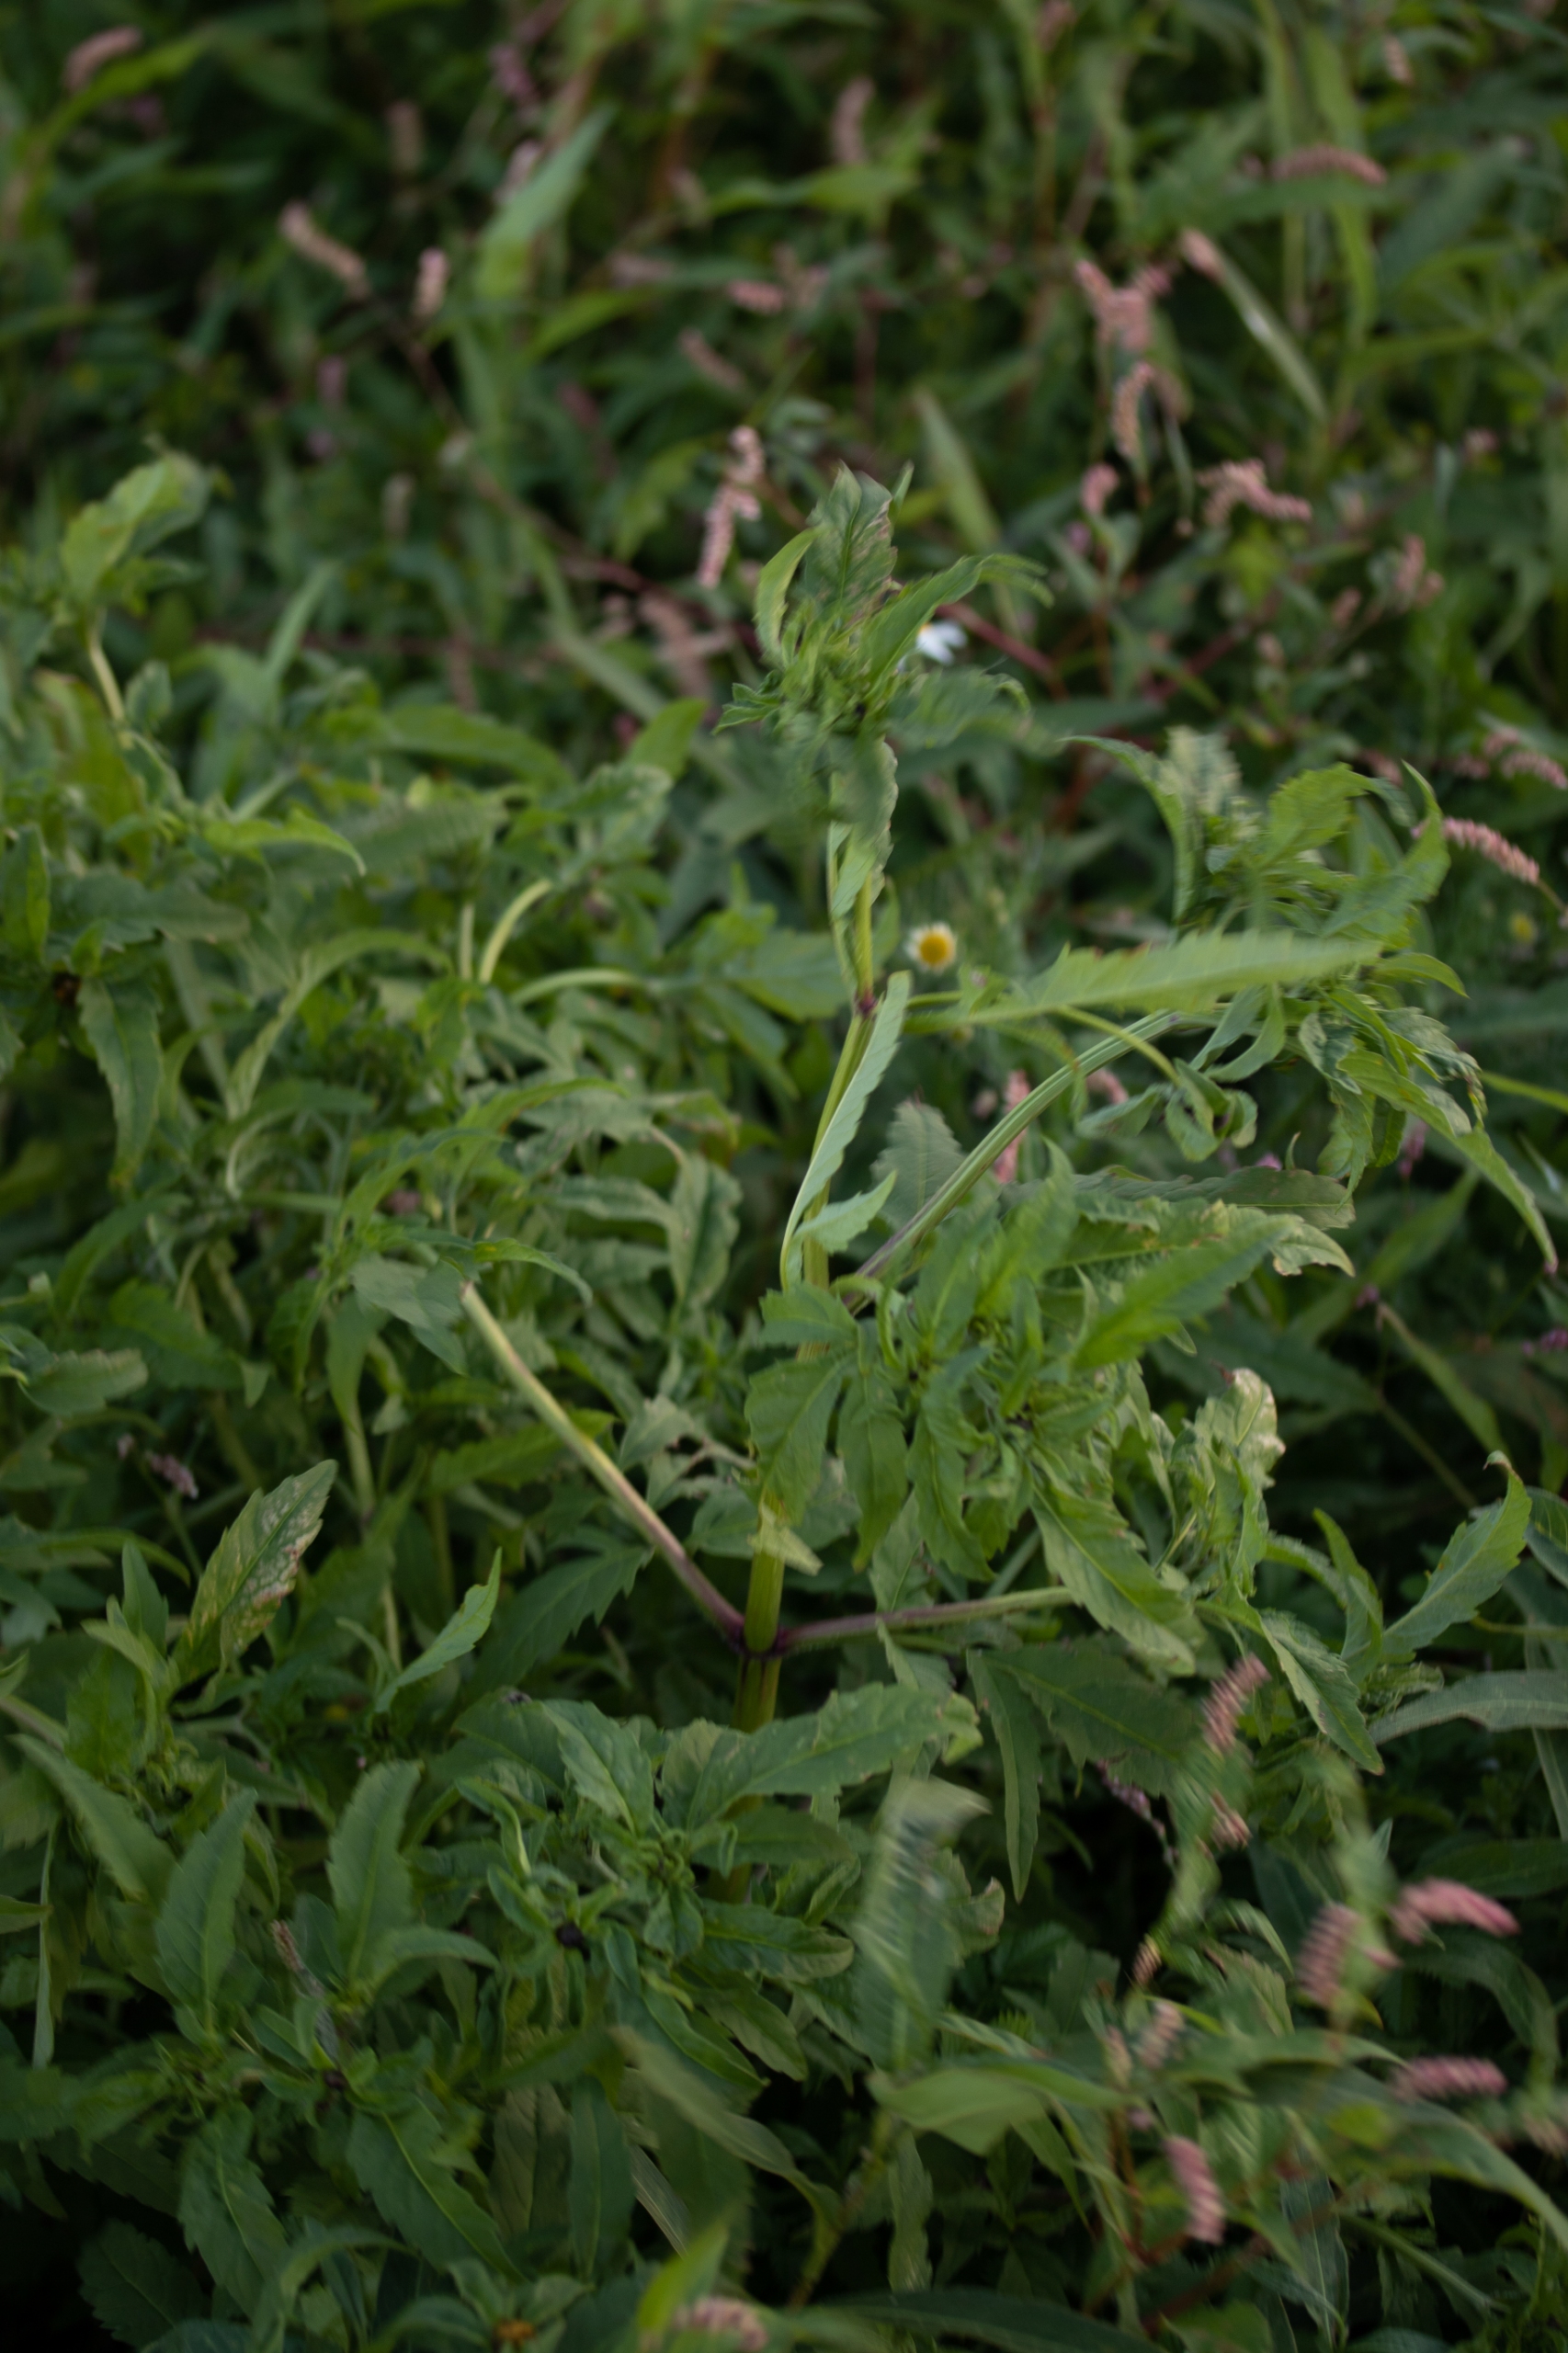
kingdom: Plantae
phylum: Tracheophyta
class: Magnoliopsida
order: Asterales
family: Asteraceae
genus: Bidens
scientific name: Bidens tripartita
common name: Fliget brøndsel
